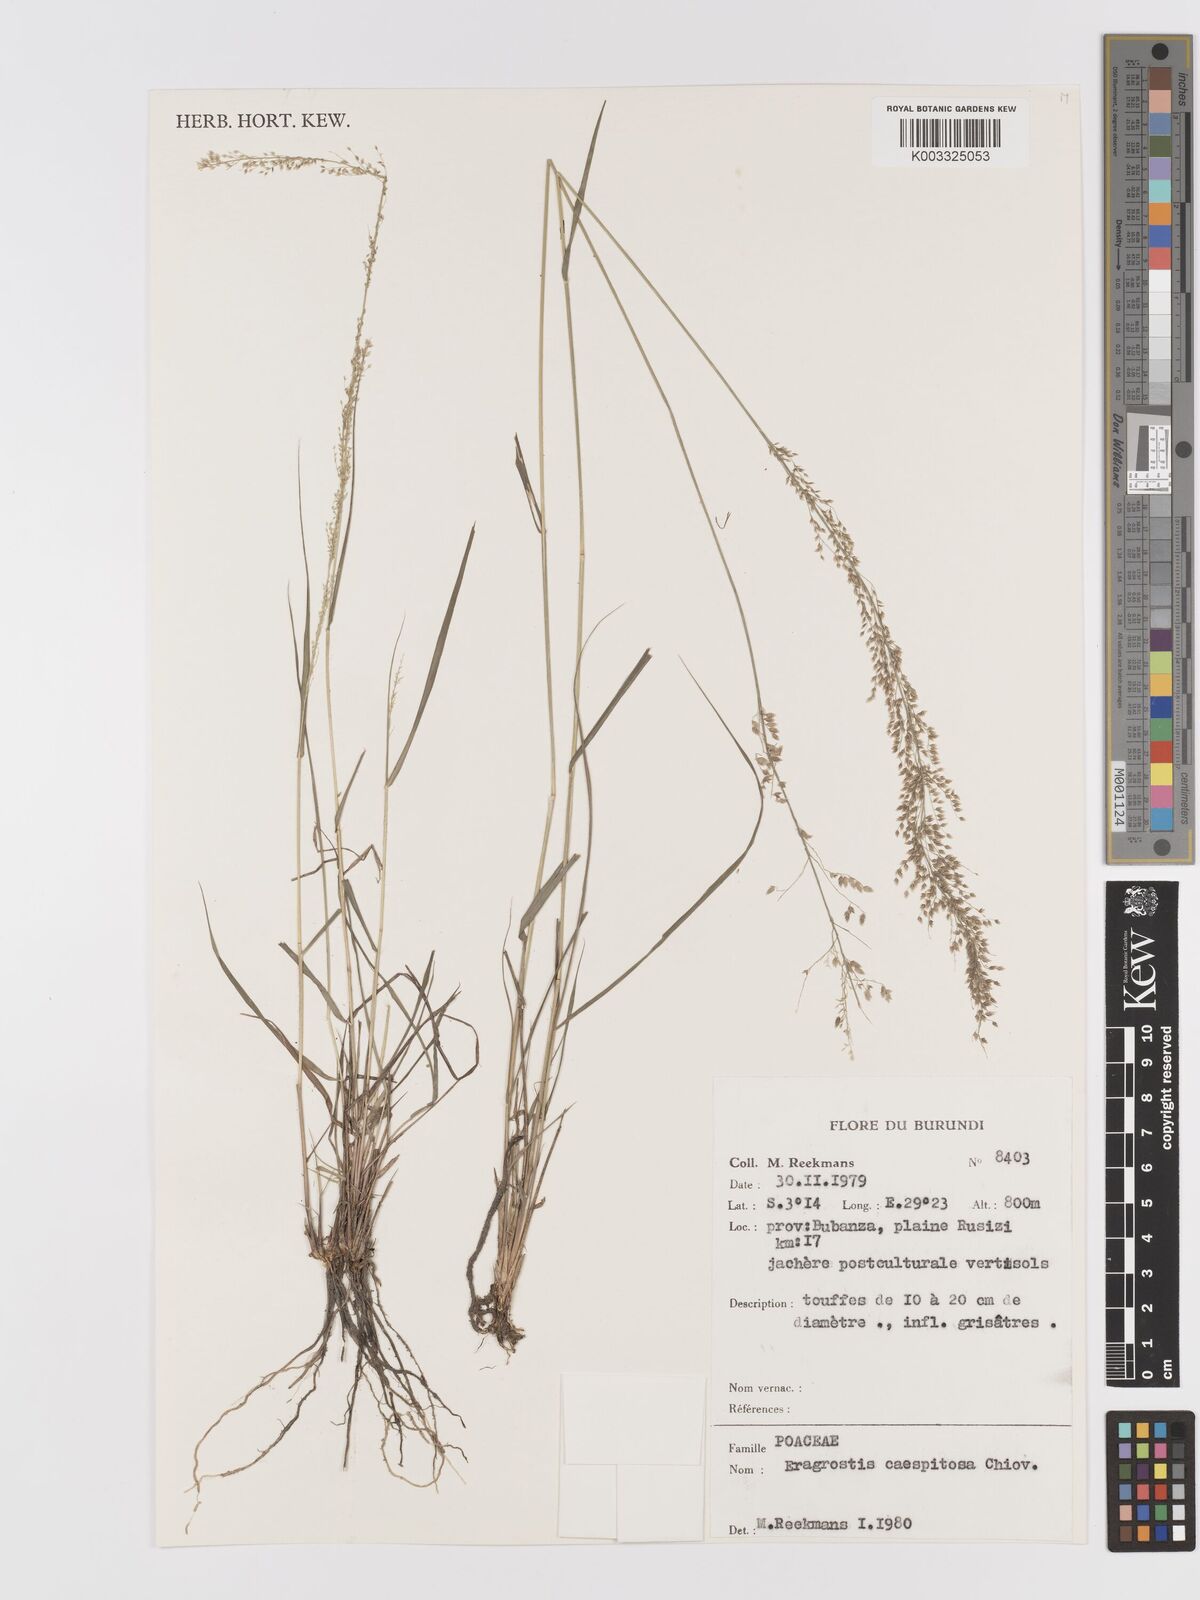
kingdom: Plantae
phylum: Tracheophyta
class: Liliopsida
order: Poales
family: Poaceae
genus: Eragrostis
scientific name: Eragrostis caespitosa
